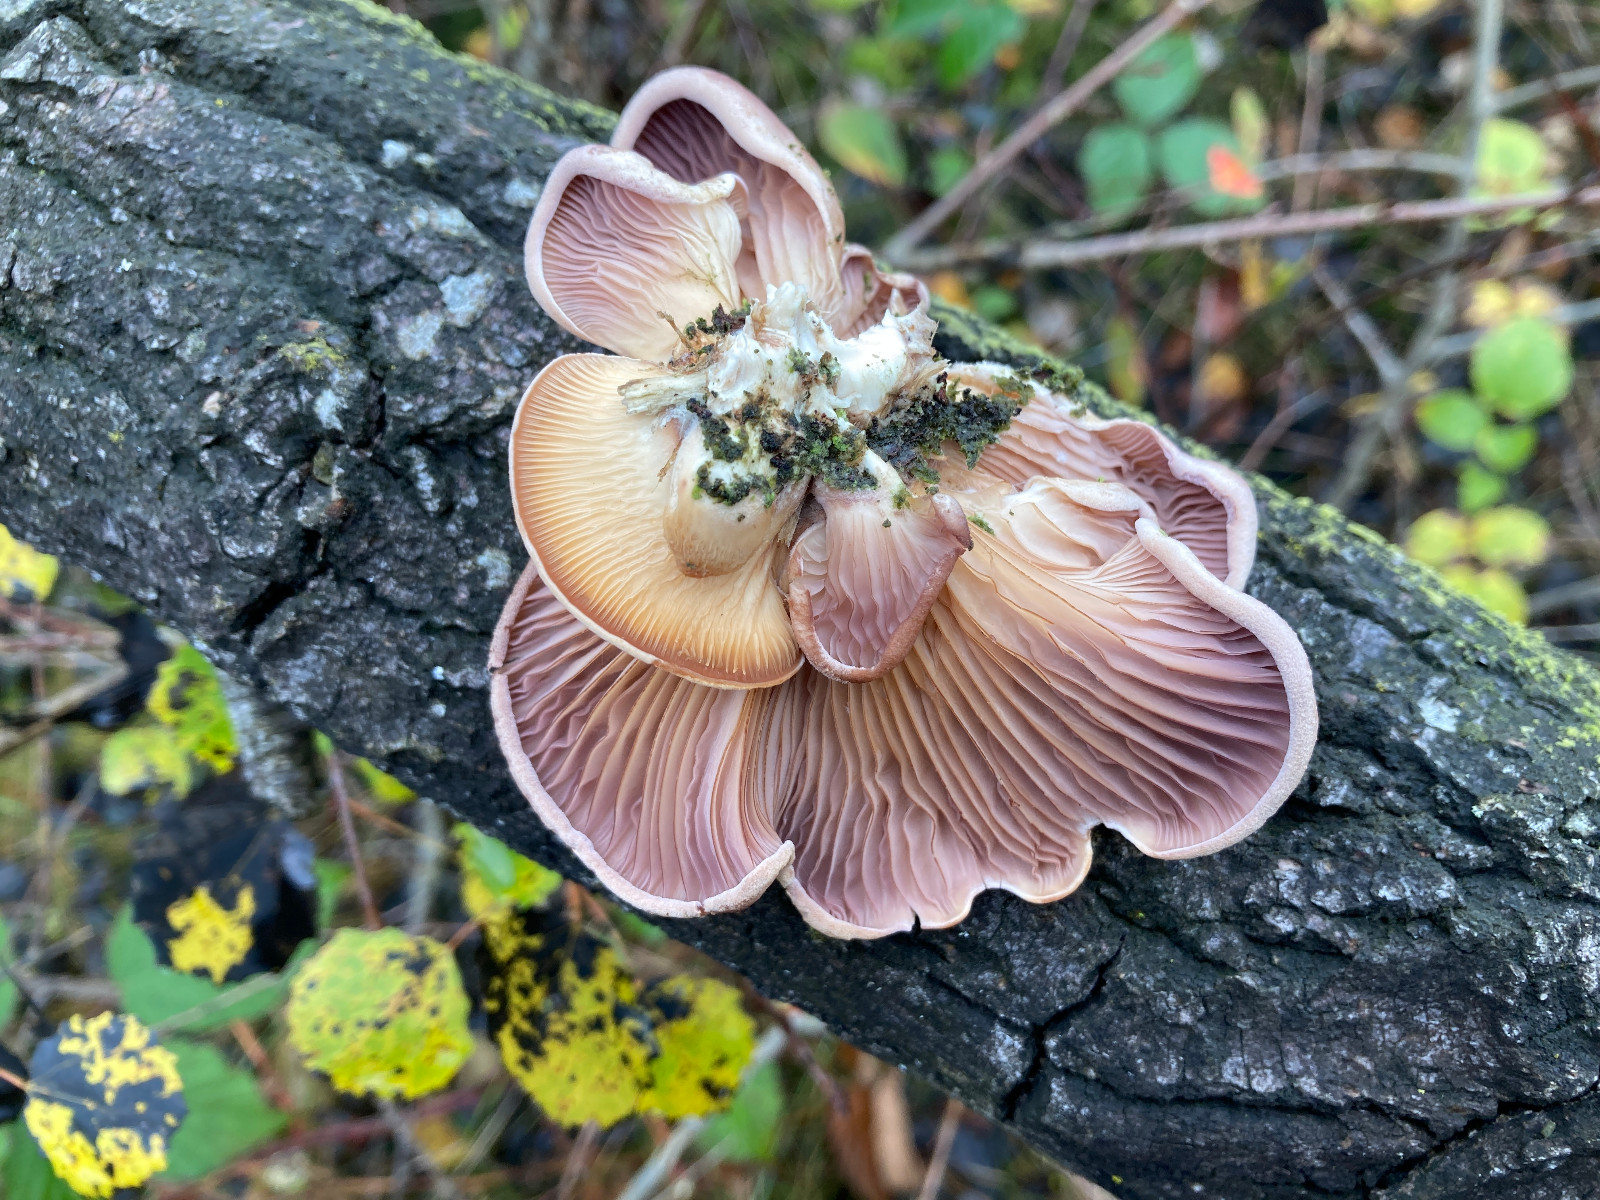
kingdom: Fungi
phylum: Basidiomycota
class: Agaricomycetes
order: Polyporales
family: Panaceae
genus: Panus
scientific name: Panus conchatus
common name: filtstokket læderhat
